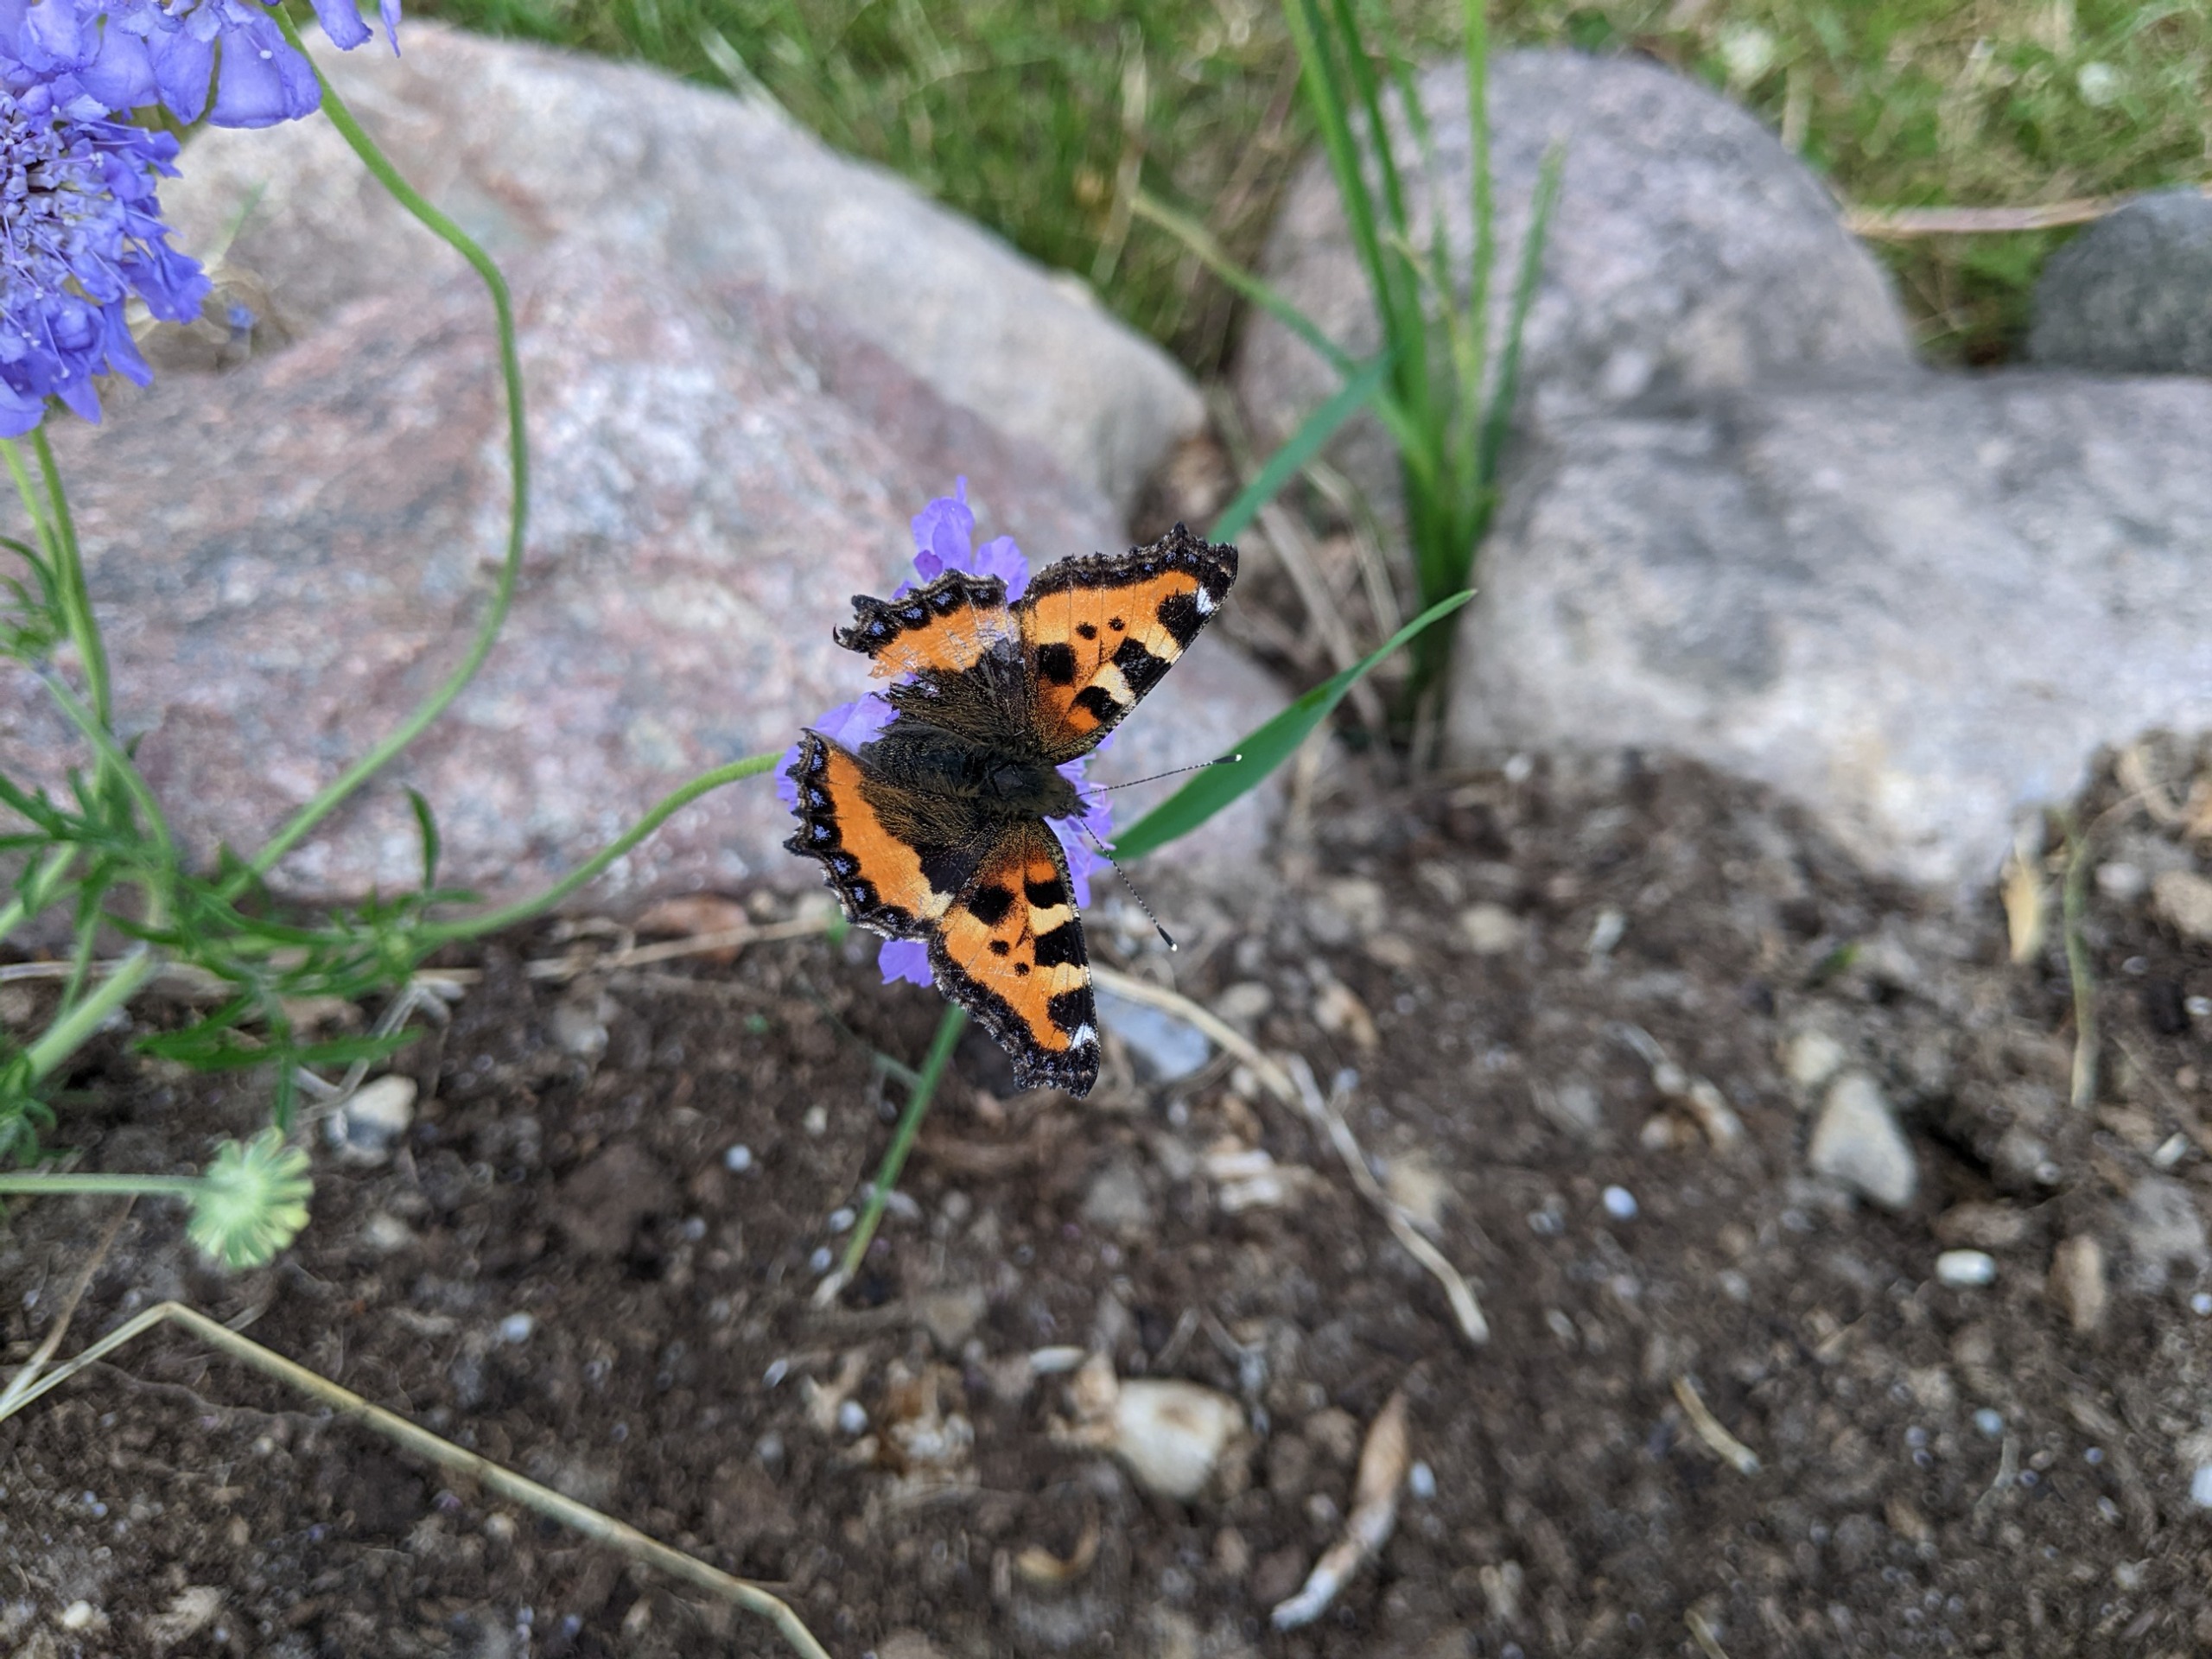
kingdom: Animalia
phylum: Arthropoda
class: Insecta
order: Lepidoptera
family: Nymphalidae
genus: Aglais
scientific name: Aglais urticae
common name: Nældens takvinge
